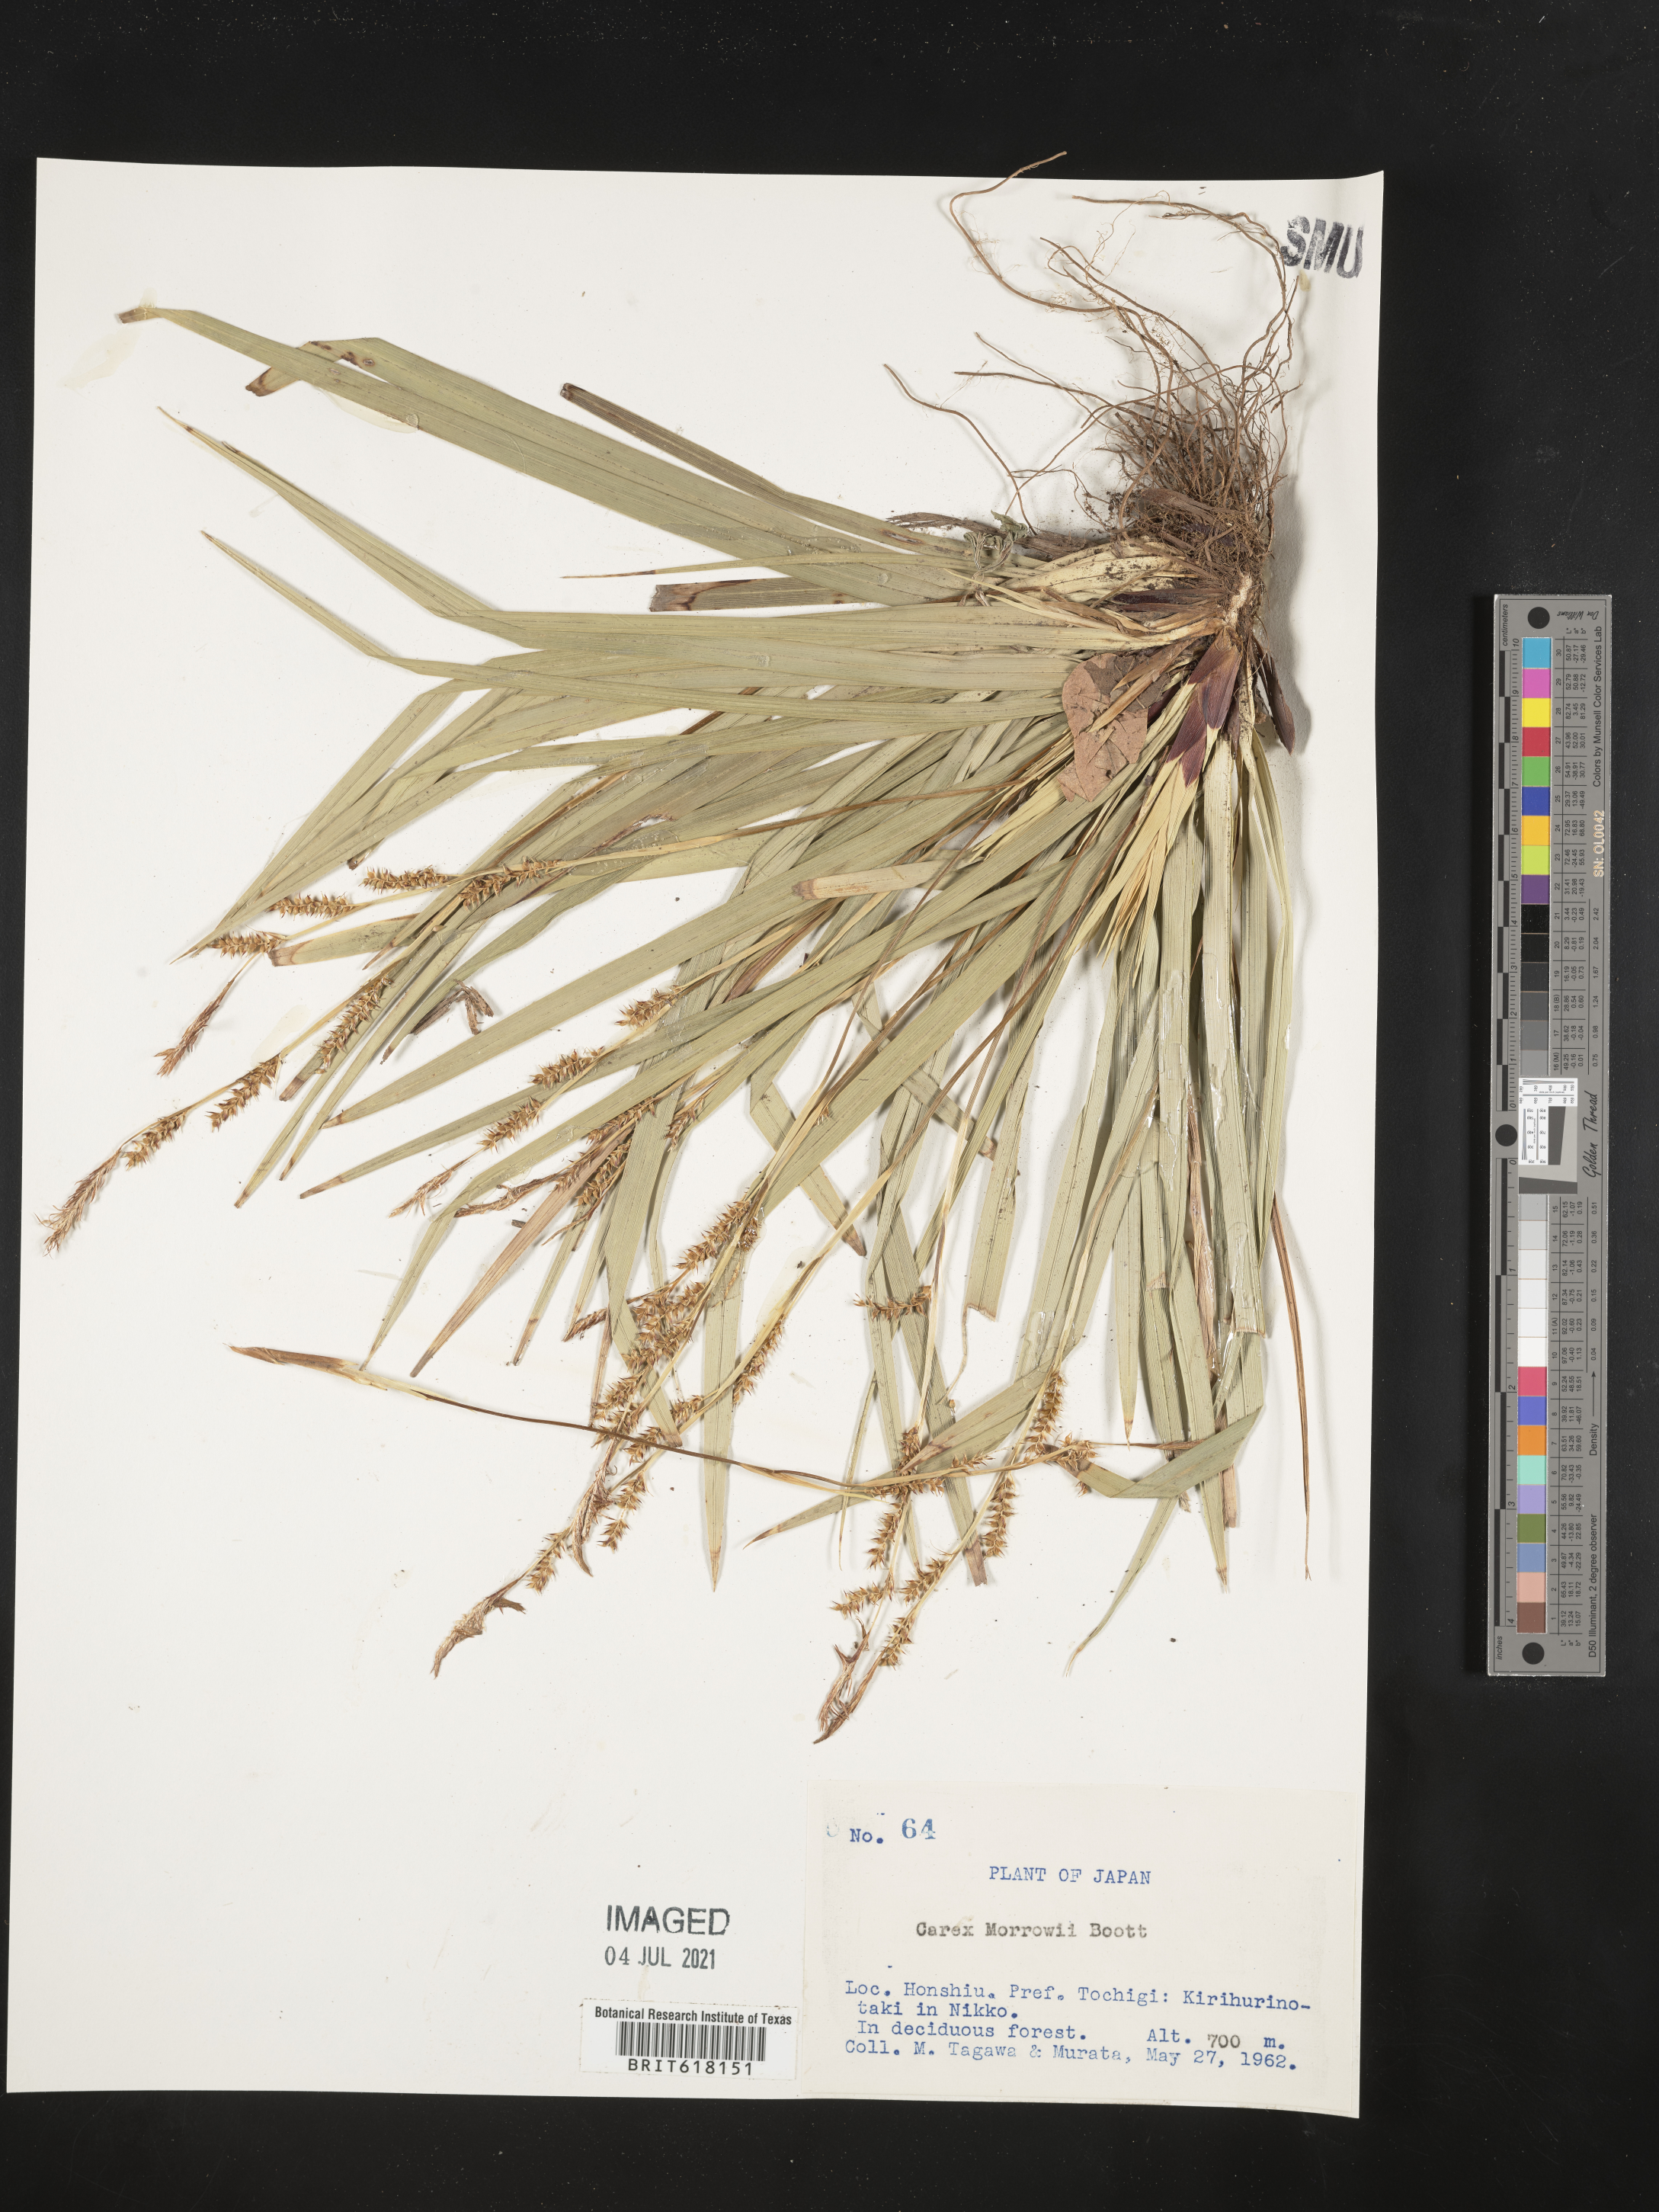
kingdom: Plantae
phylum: Tracheophyta
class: Liliopsida
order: Poales
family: Cyperaceae
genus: Carex
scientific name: Carex morrowii
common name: Japanese sedge
